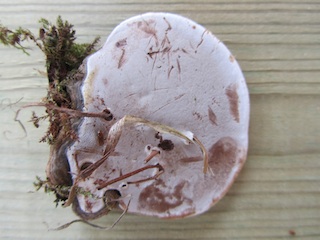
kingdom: Fungi
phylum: Basidiomycota
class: Agaricomycetes
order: Polyporales
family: Polyporaceae
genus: Ganoderma
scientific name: Ganoderma applanatum
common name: flad lakporesvamp
